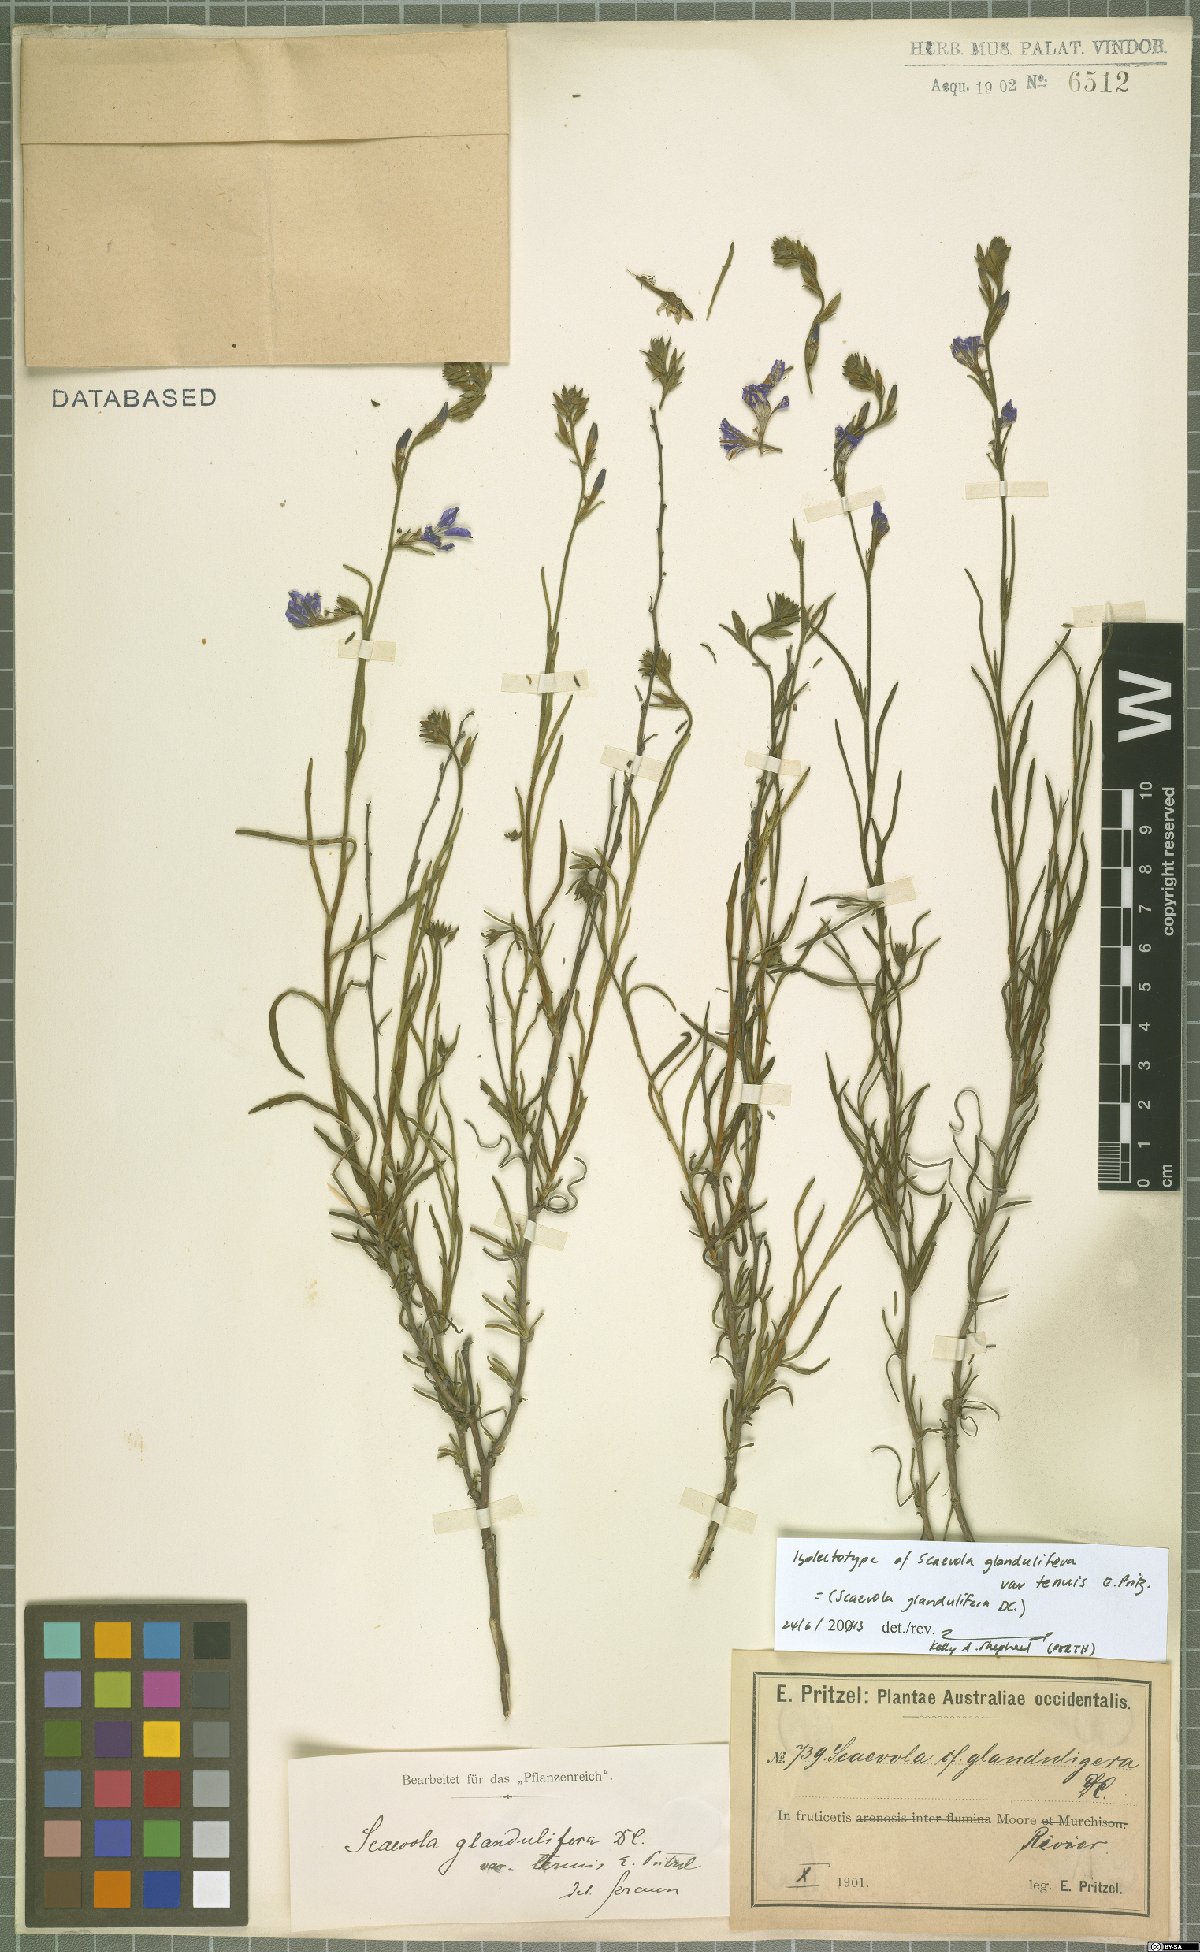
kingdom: Plantae
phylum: Tracheophyta
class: Magnoliopsida
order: Asterales
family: Goodeniaceae
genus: Scaevola
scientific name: Scaevola glandulifera
